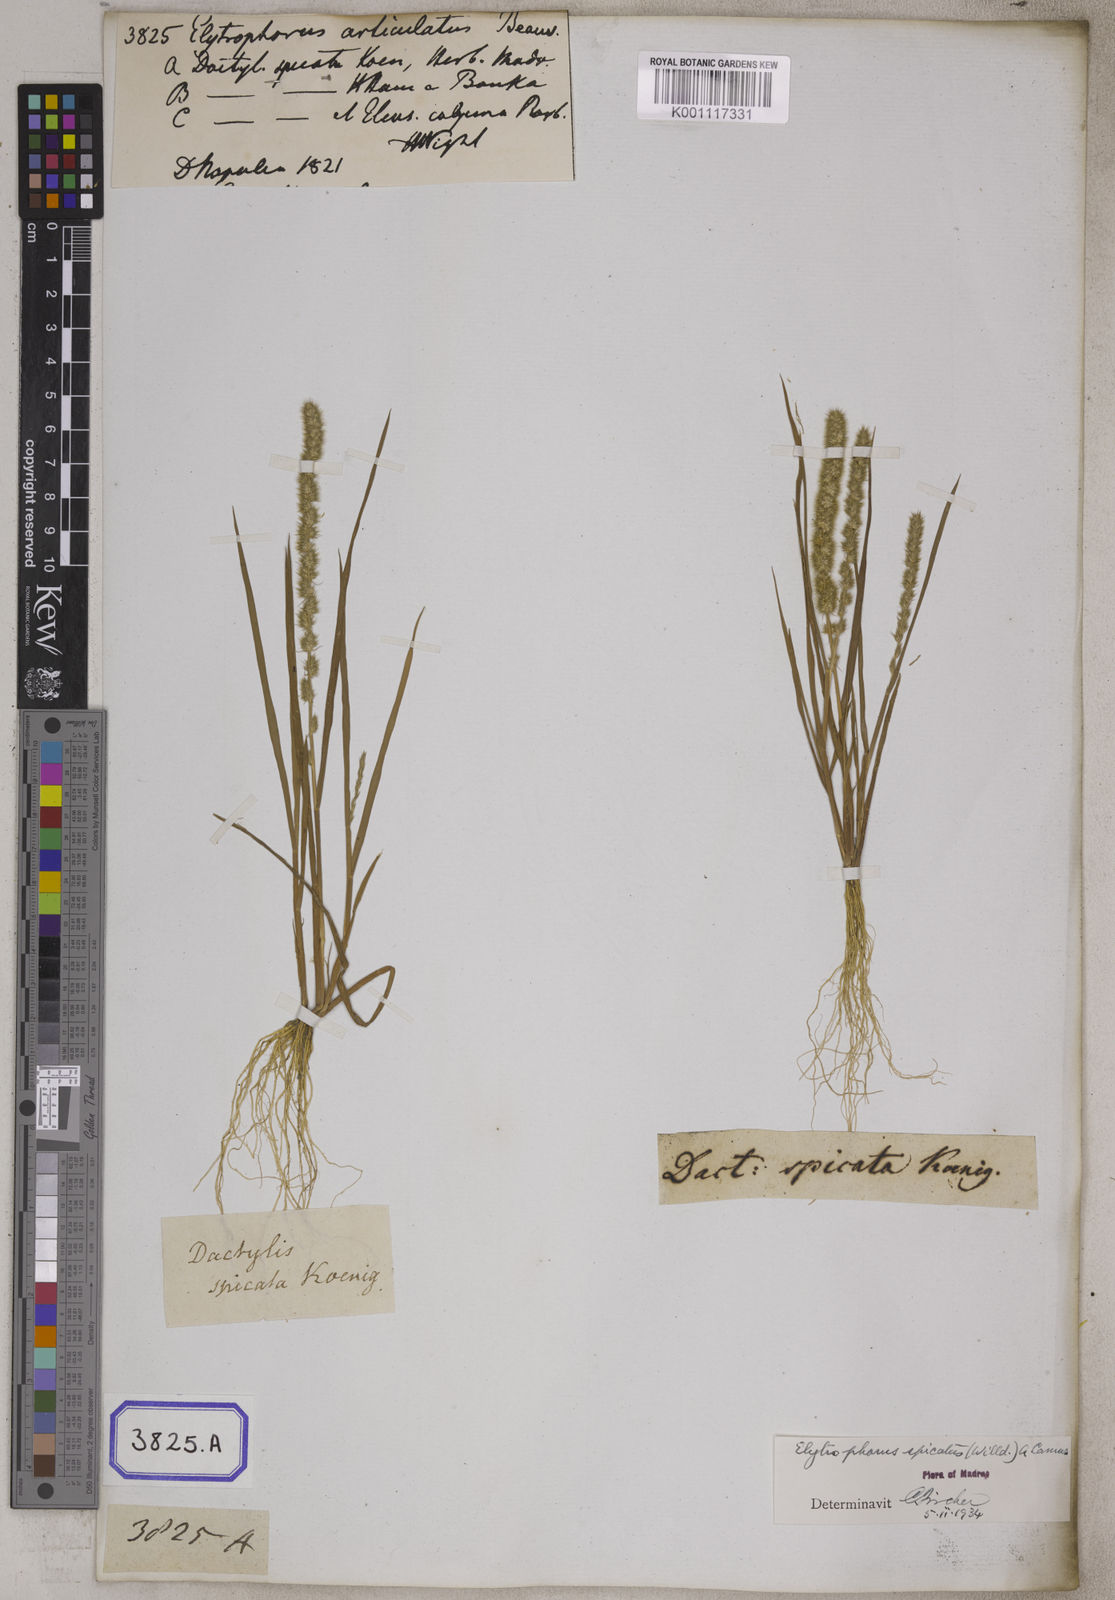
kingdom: Plantae
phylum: Tracheophyta
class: Liliopsida
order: Poales
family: Poaceae
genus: Elytrophorus
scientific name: Elytrophorus spicatus
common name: Spike grass
